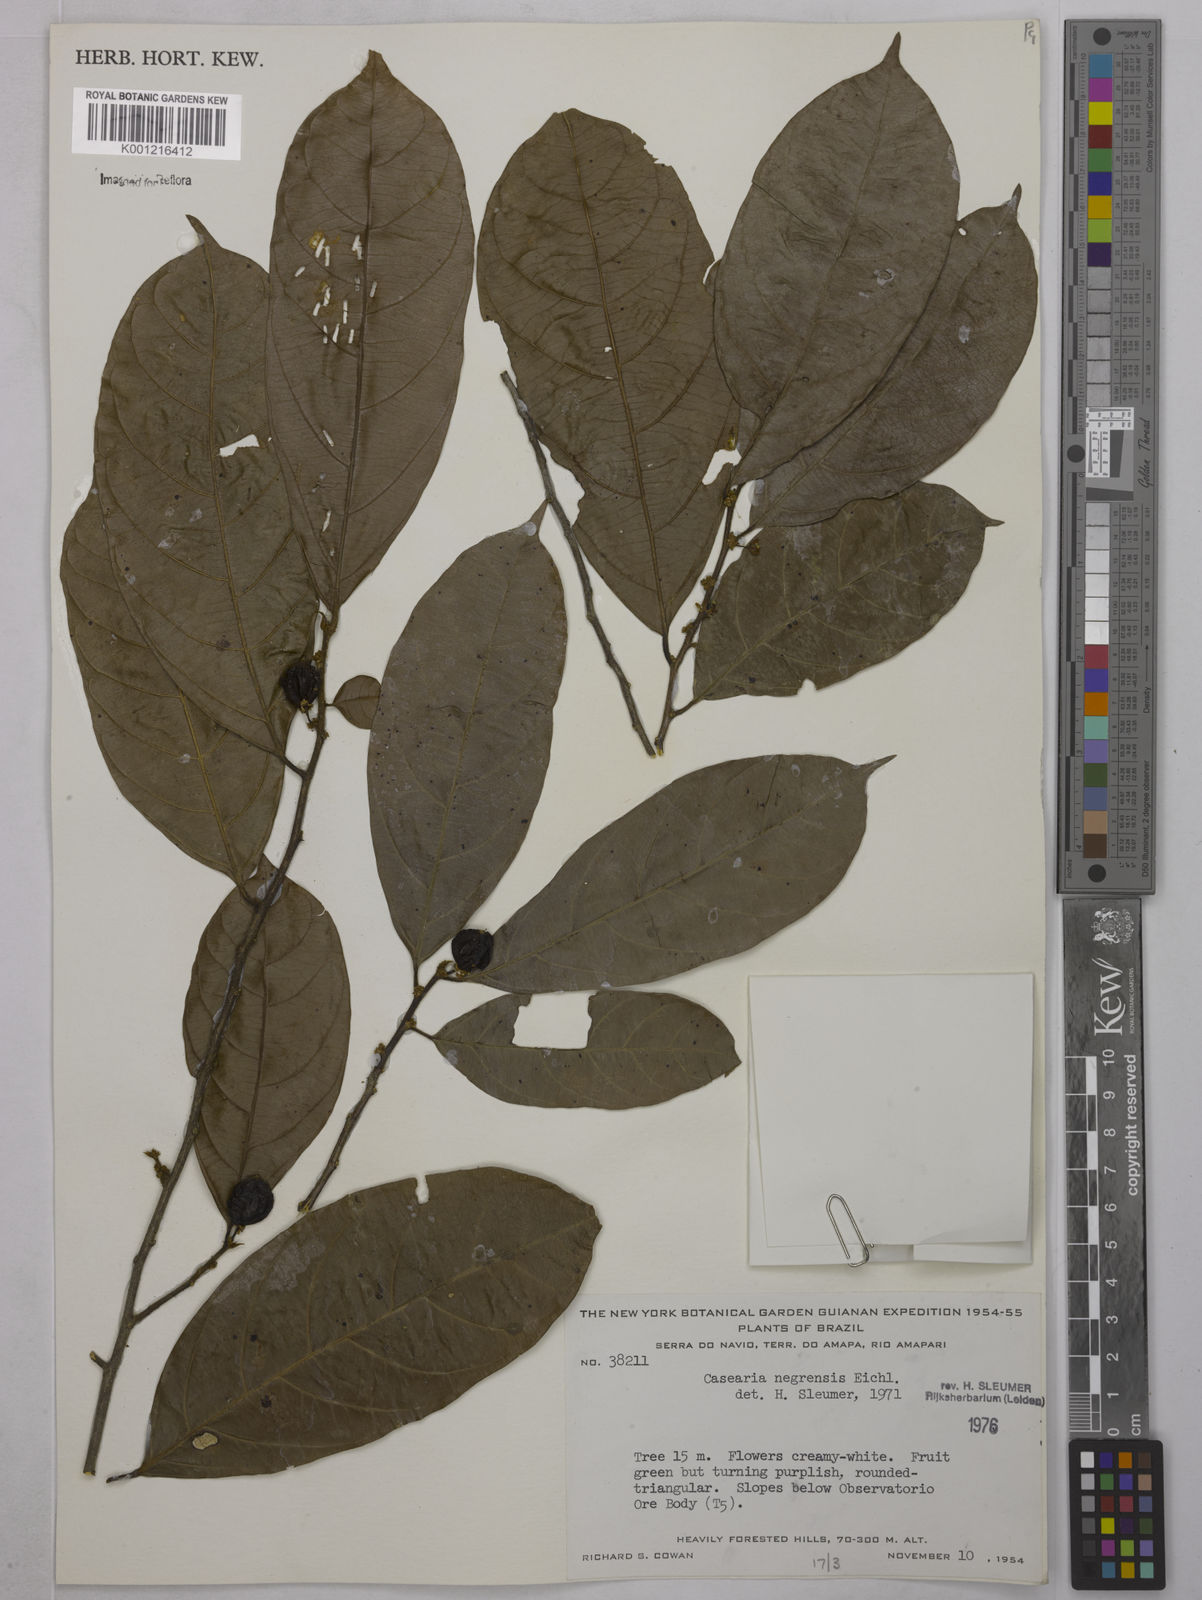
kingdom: Plantae
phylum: Tracheophyta
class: Magnoliopsida
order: Malpighiales
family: Salicaceae
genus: Casearia
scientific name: Casearia negrensis
